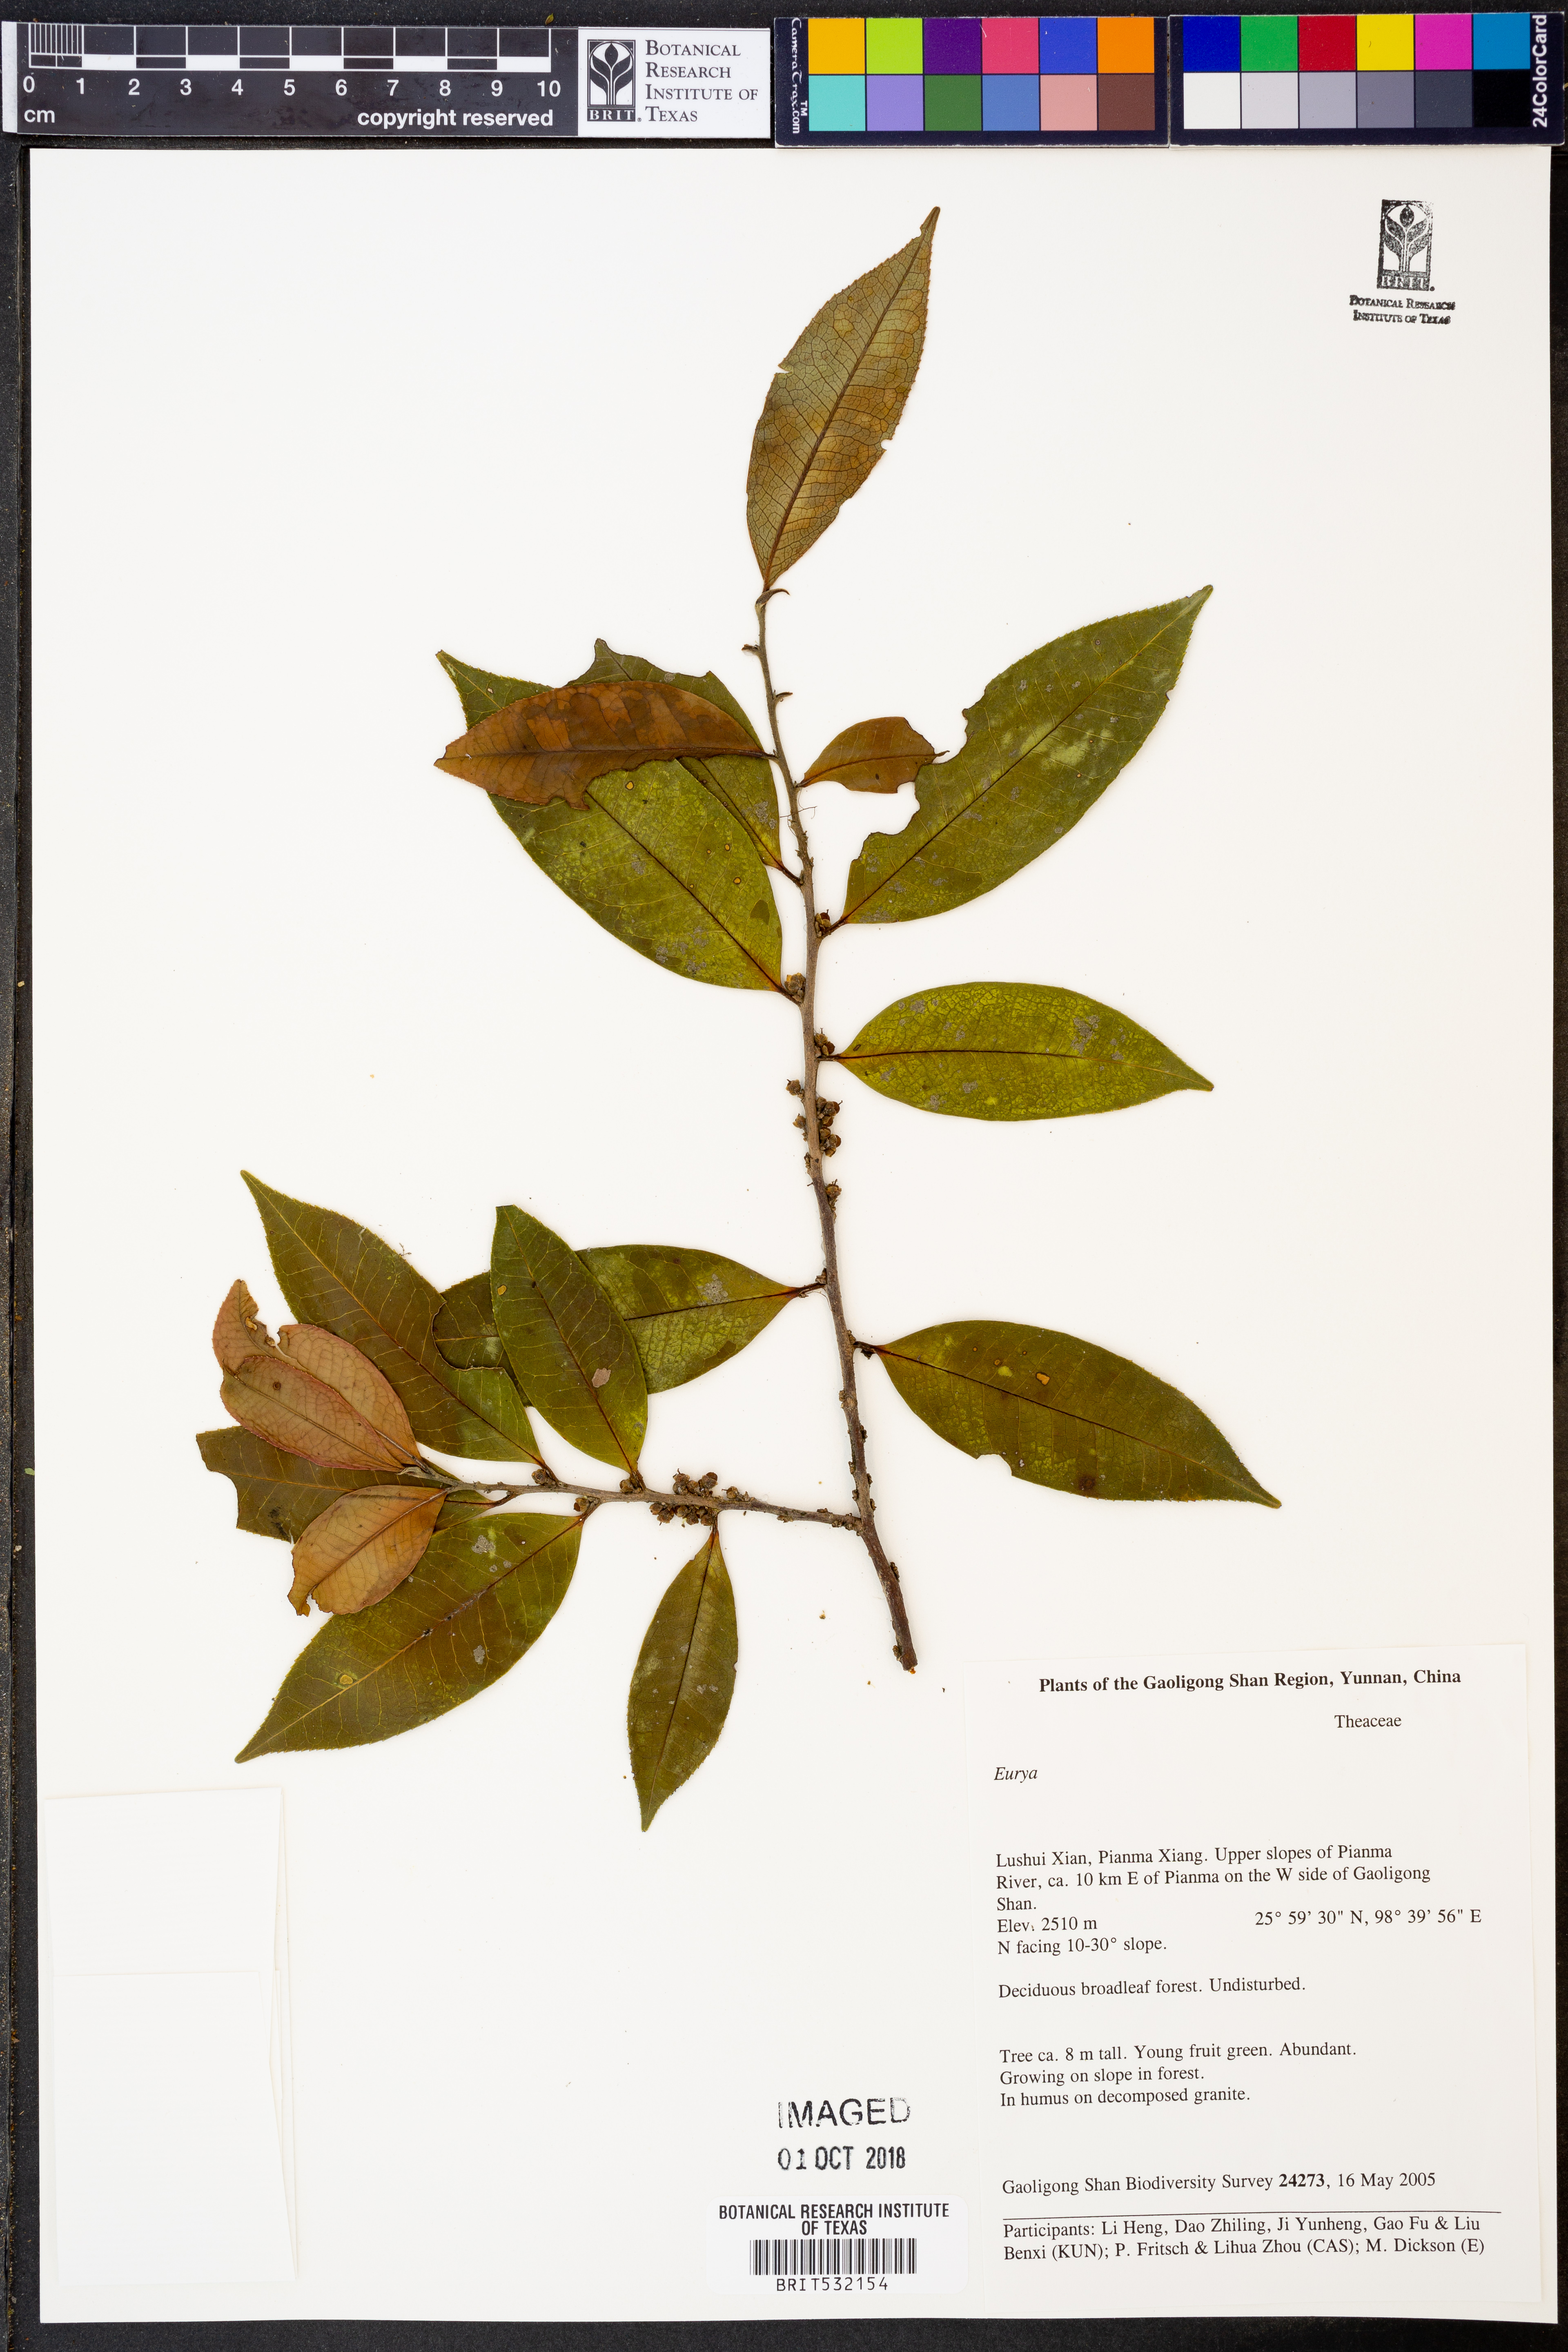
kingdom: Plantae
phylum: Tracheophyta
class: Magnoliopsida
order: Ericales
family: Pentaphylacaceae
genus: Eurya
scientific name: Eurya
